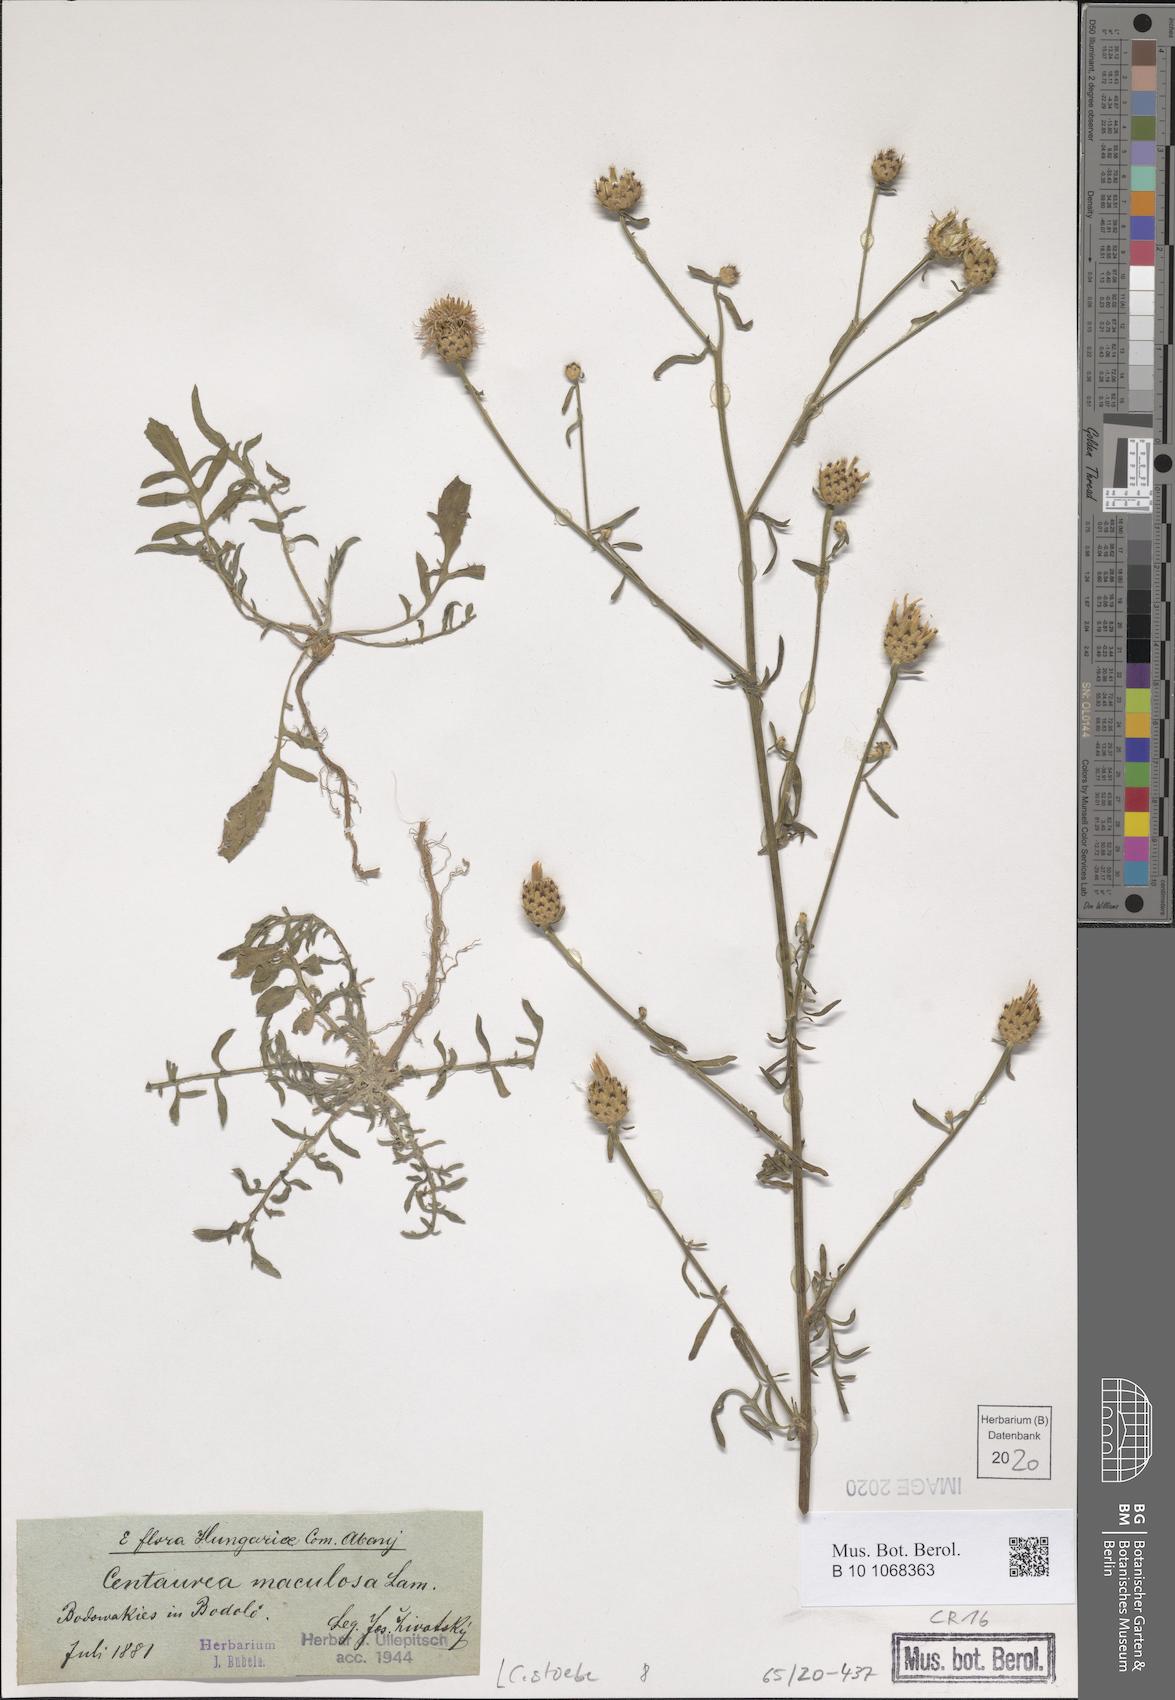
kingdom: Plantae
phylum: Tracheophyta
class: Magnoliopsida
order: Asterales
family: Asteraceae
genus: Centaurea
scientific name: Centaurea stoebe
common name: Spotted knapweed
